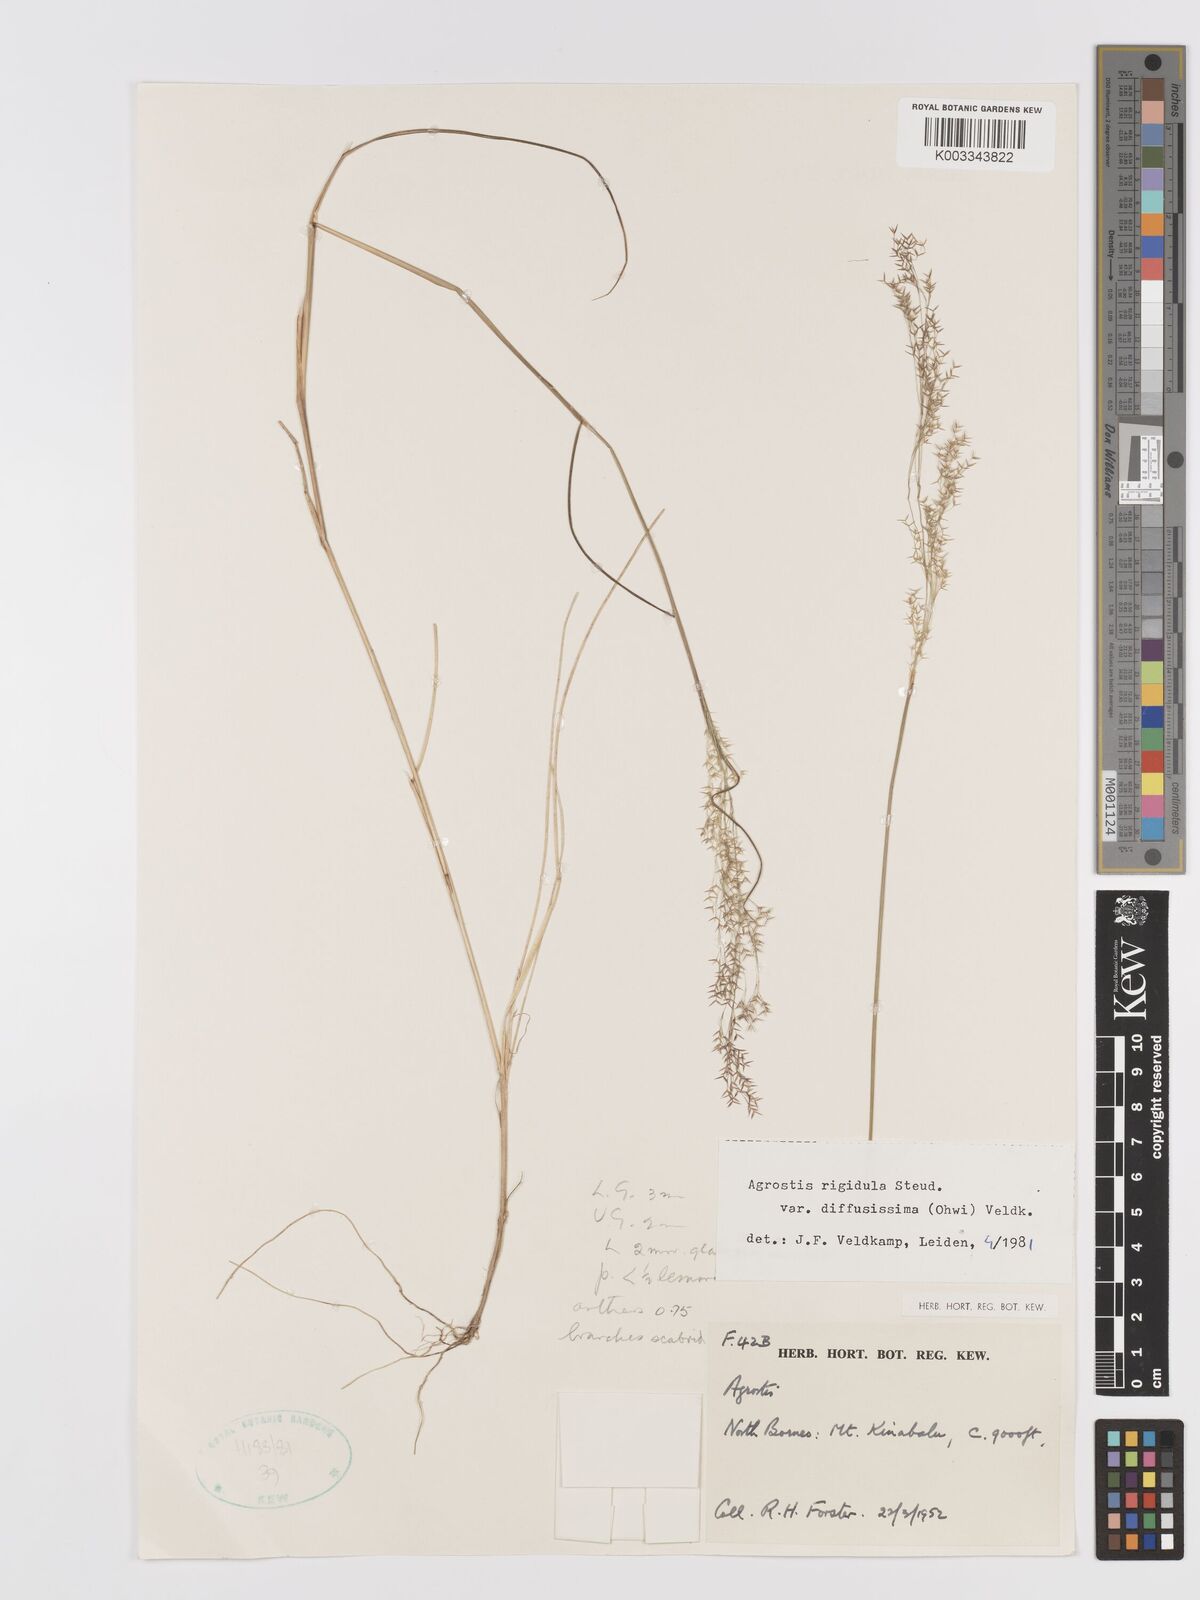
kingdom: Plantae
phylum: Tracheophyta
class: Liliopsida
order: Poales
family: Poaceae
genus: Agrostis
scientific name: Agrostis infirma
